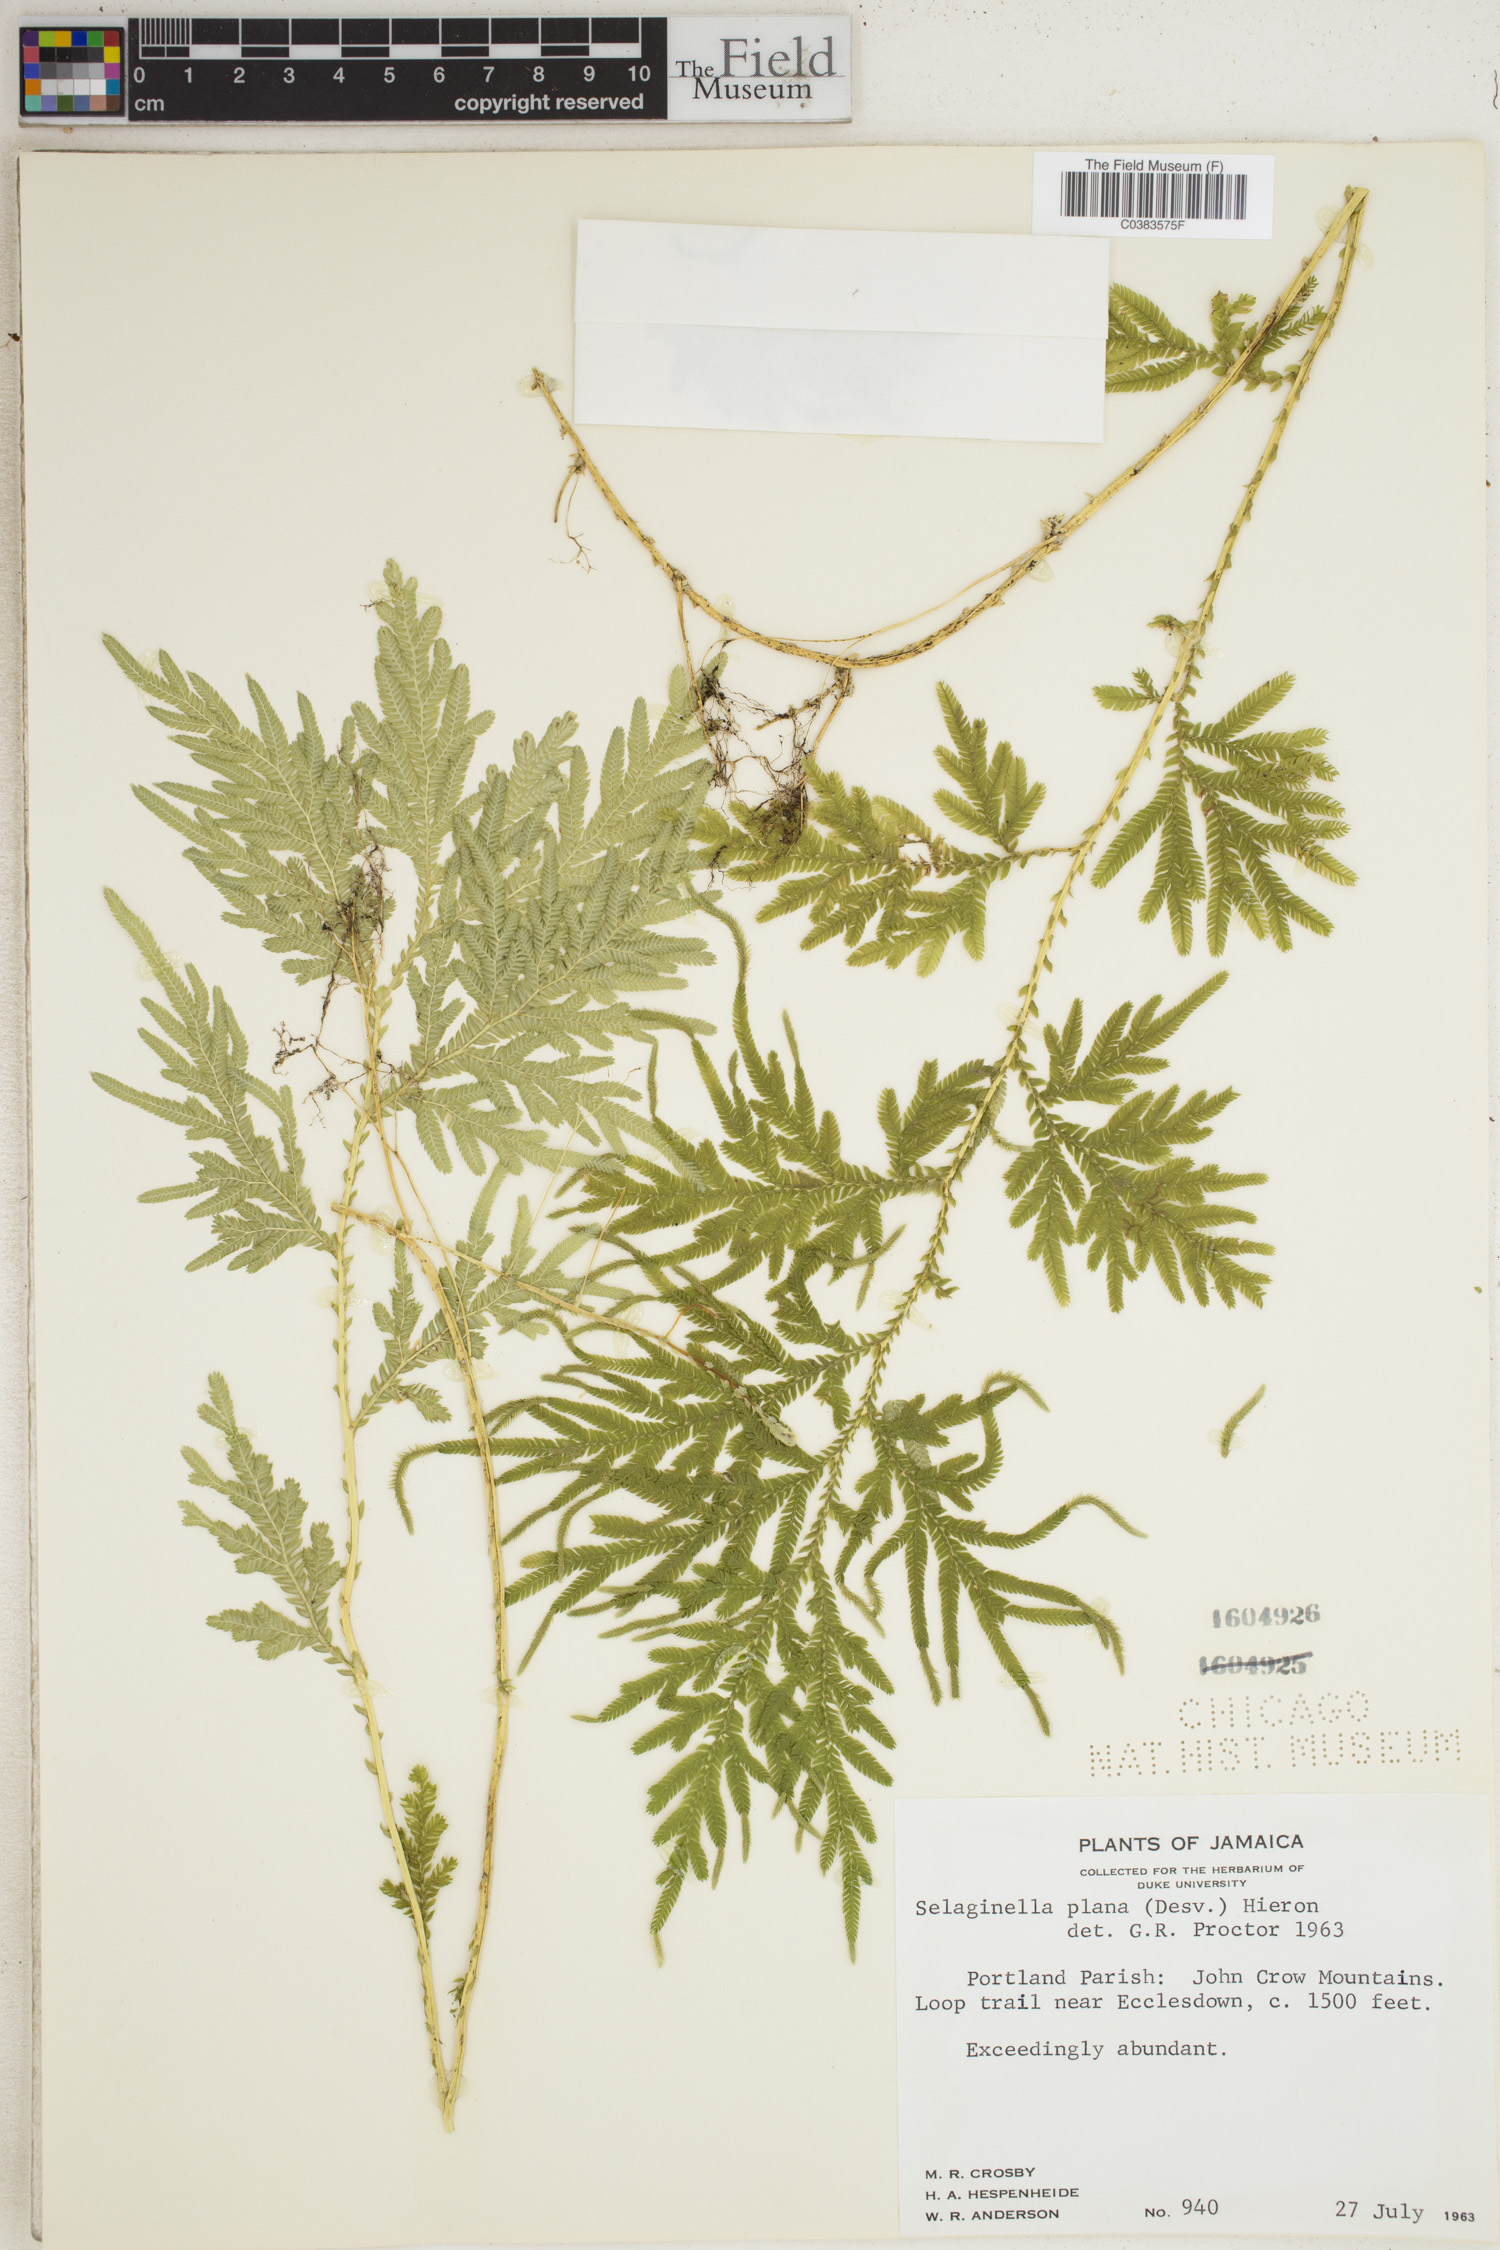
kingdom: Plantae
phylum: Tracheophyta
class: Lycopodiopsida
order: Selaginellales
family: Selaginellaceae
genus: Selaginella
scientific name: Selaginella plana
